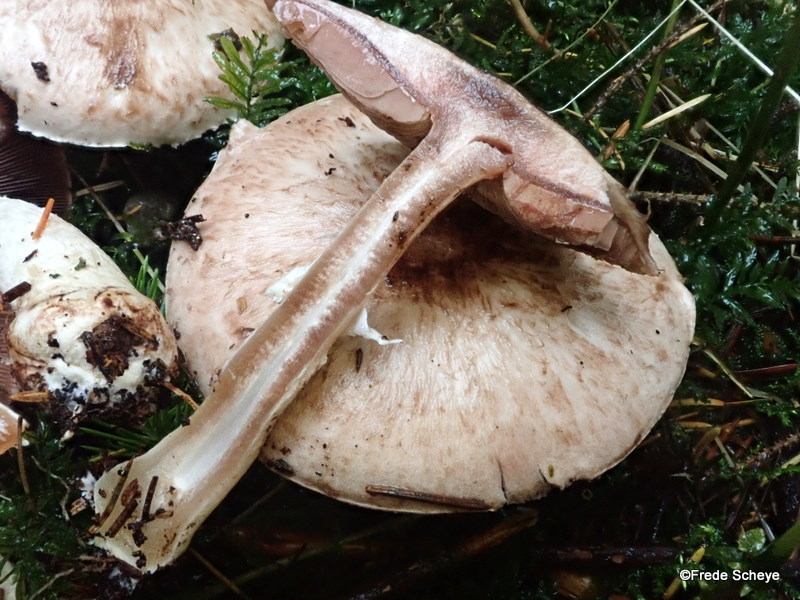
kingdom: Fungi
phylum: Basidiomycota
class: Agaricomycetes
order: Agaricales
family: Agaricaceae
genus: Agaricus
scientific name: Agaricus impudicus
